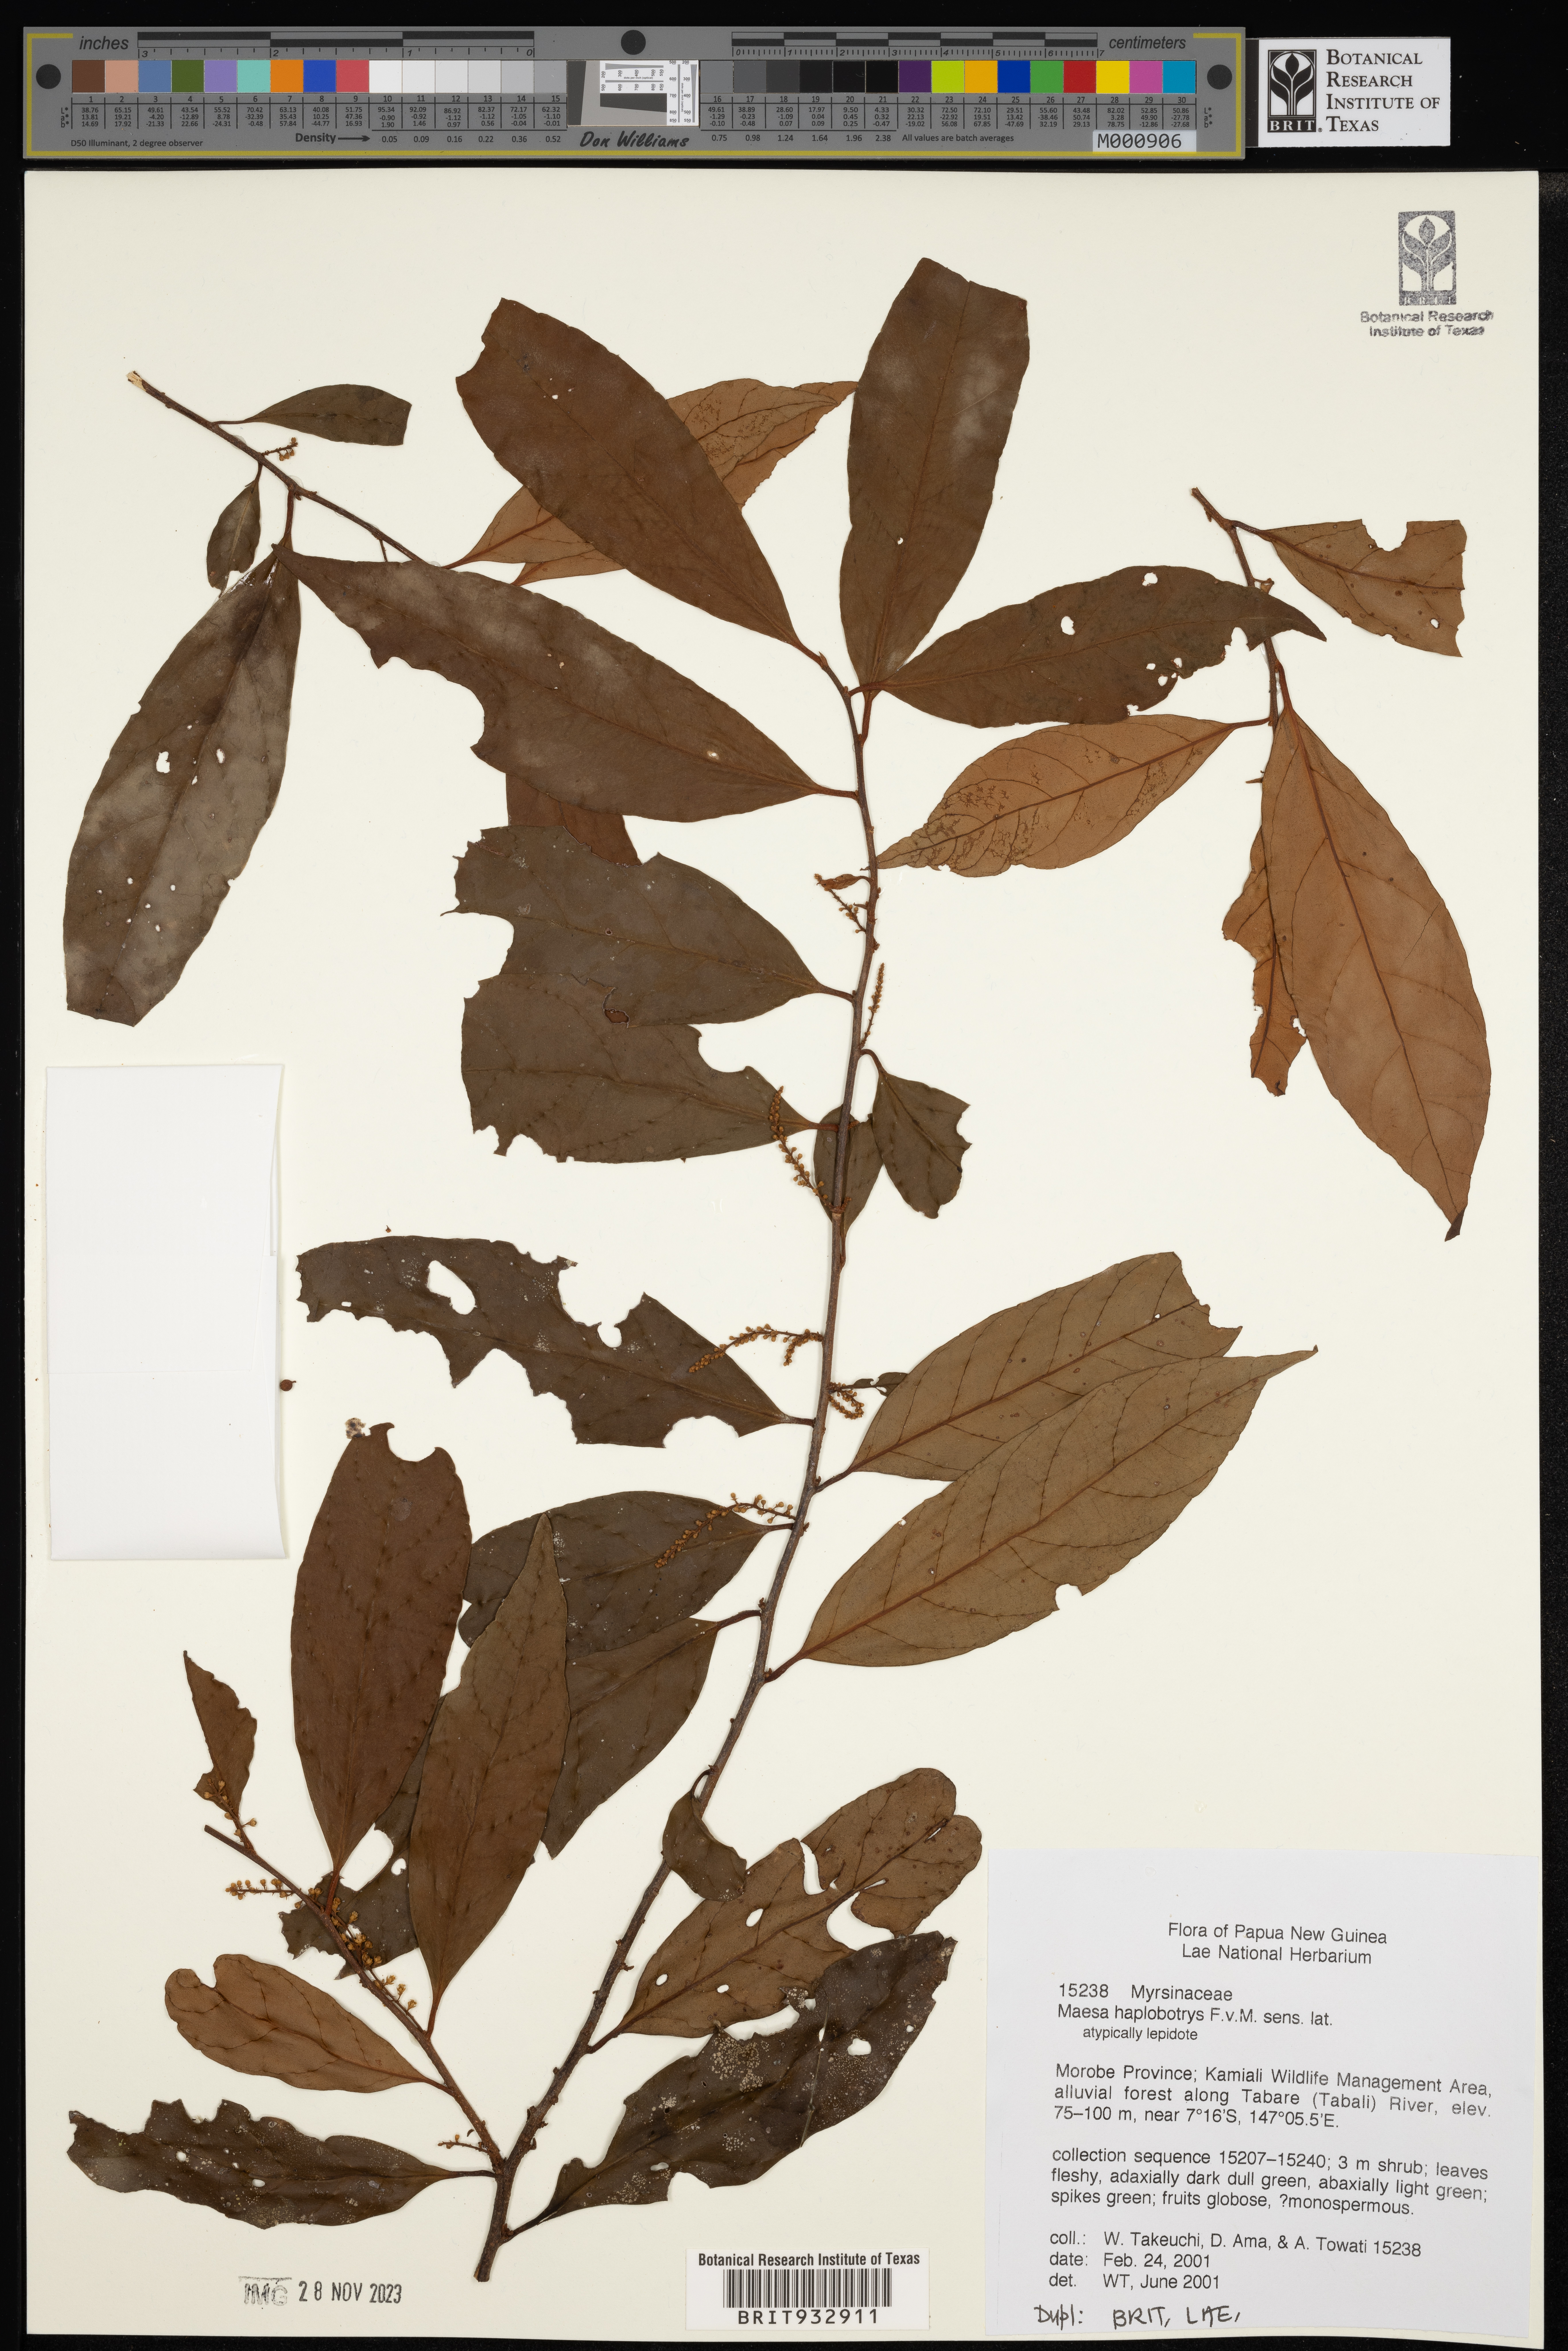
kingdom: Plantae
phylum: Tracheophyta
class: Magnoliopsida
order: Ericales
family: Primulaceae
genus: Maesa
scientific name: Maesa
